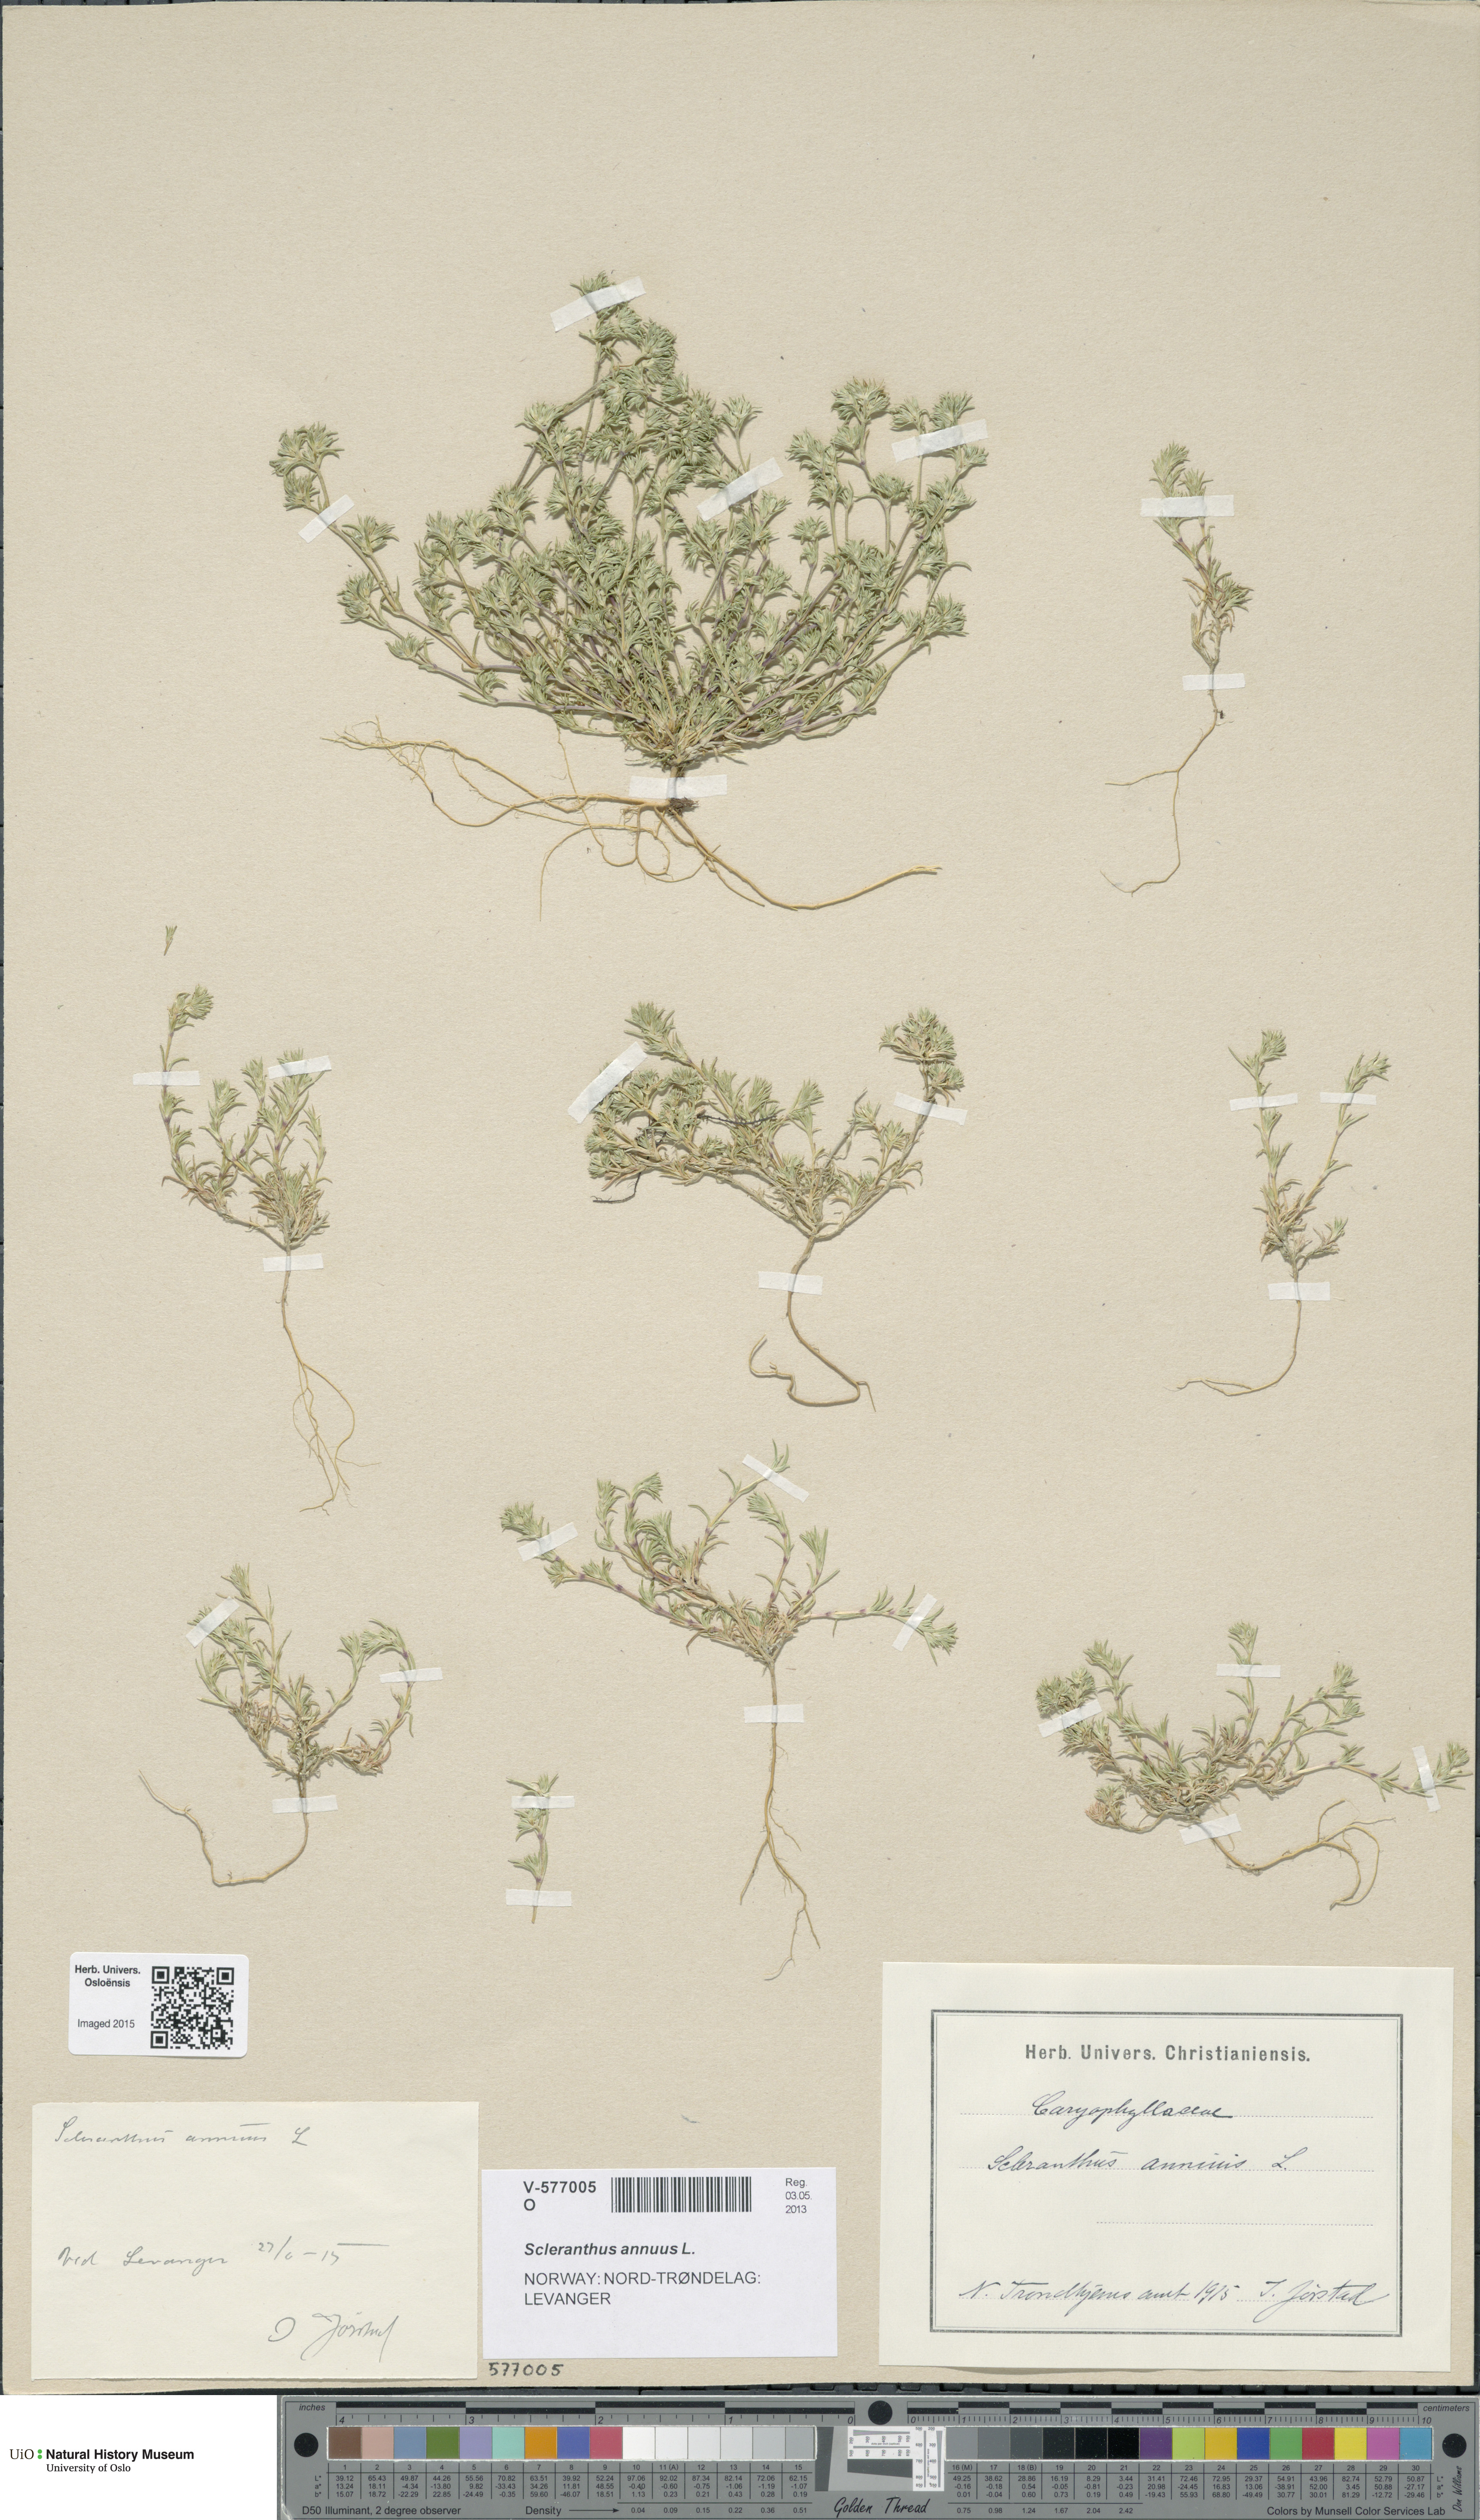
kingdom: Plantae
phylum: Tracheophyta
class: Magnoliopsida
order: Caryophyllales
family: Caryophyllaceae
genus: Scleranthus
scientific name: Scleranthus annuus
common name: Annual knawel
